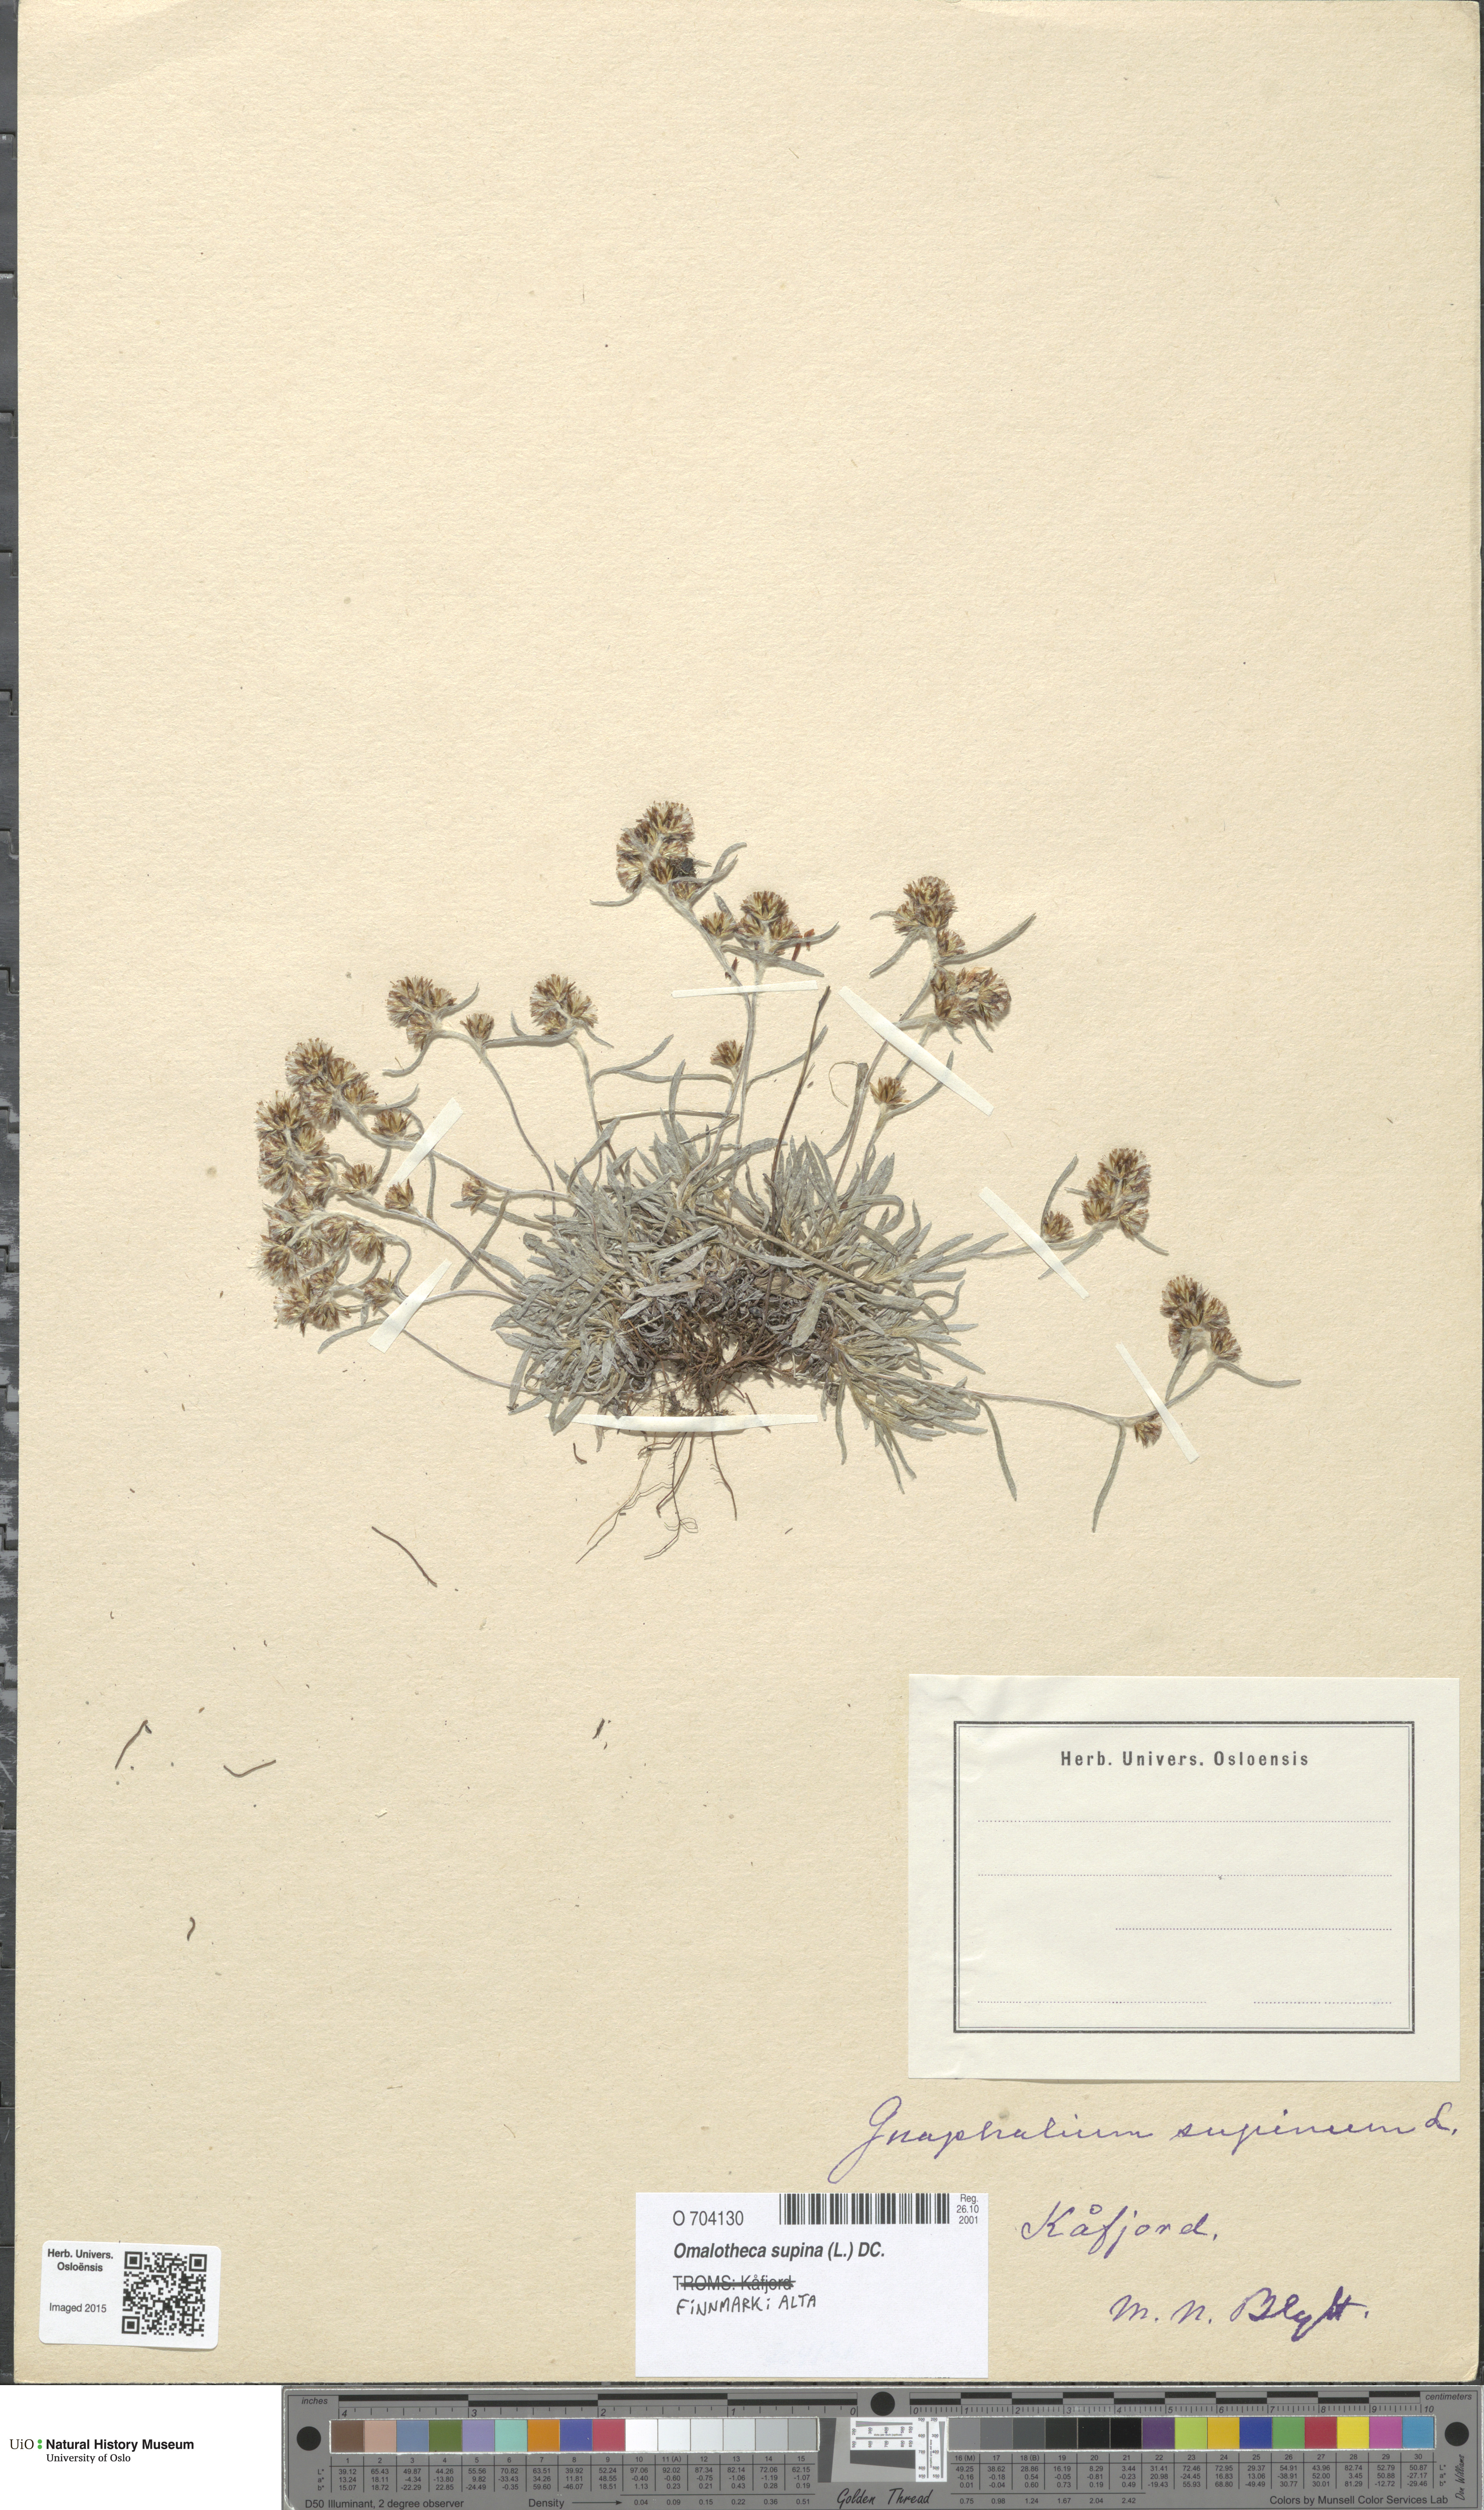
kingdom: Plantae
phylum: Tracheophyta
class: Magnoliopsida
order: Asterales
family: Asteraceae
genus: Omalotheca
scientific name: Omalotheca supina
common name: Alpine arctic-cudweed
